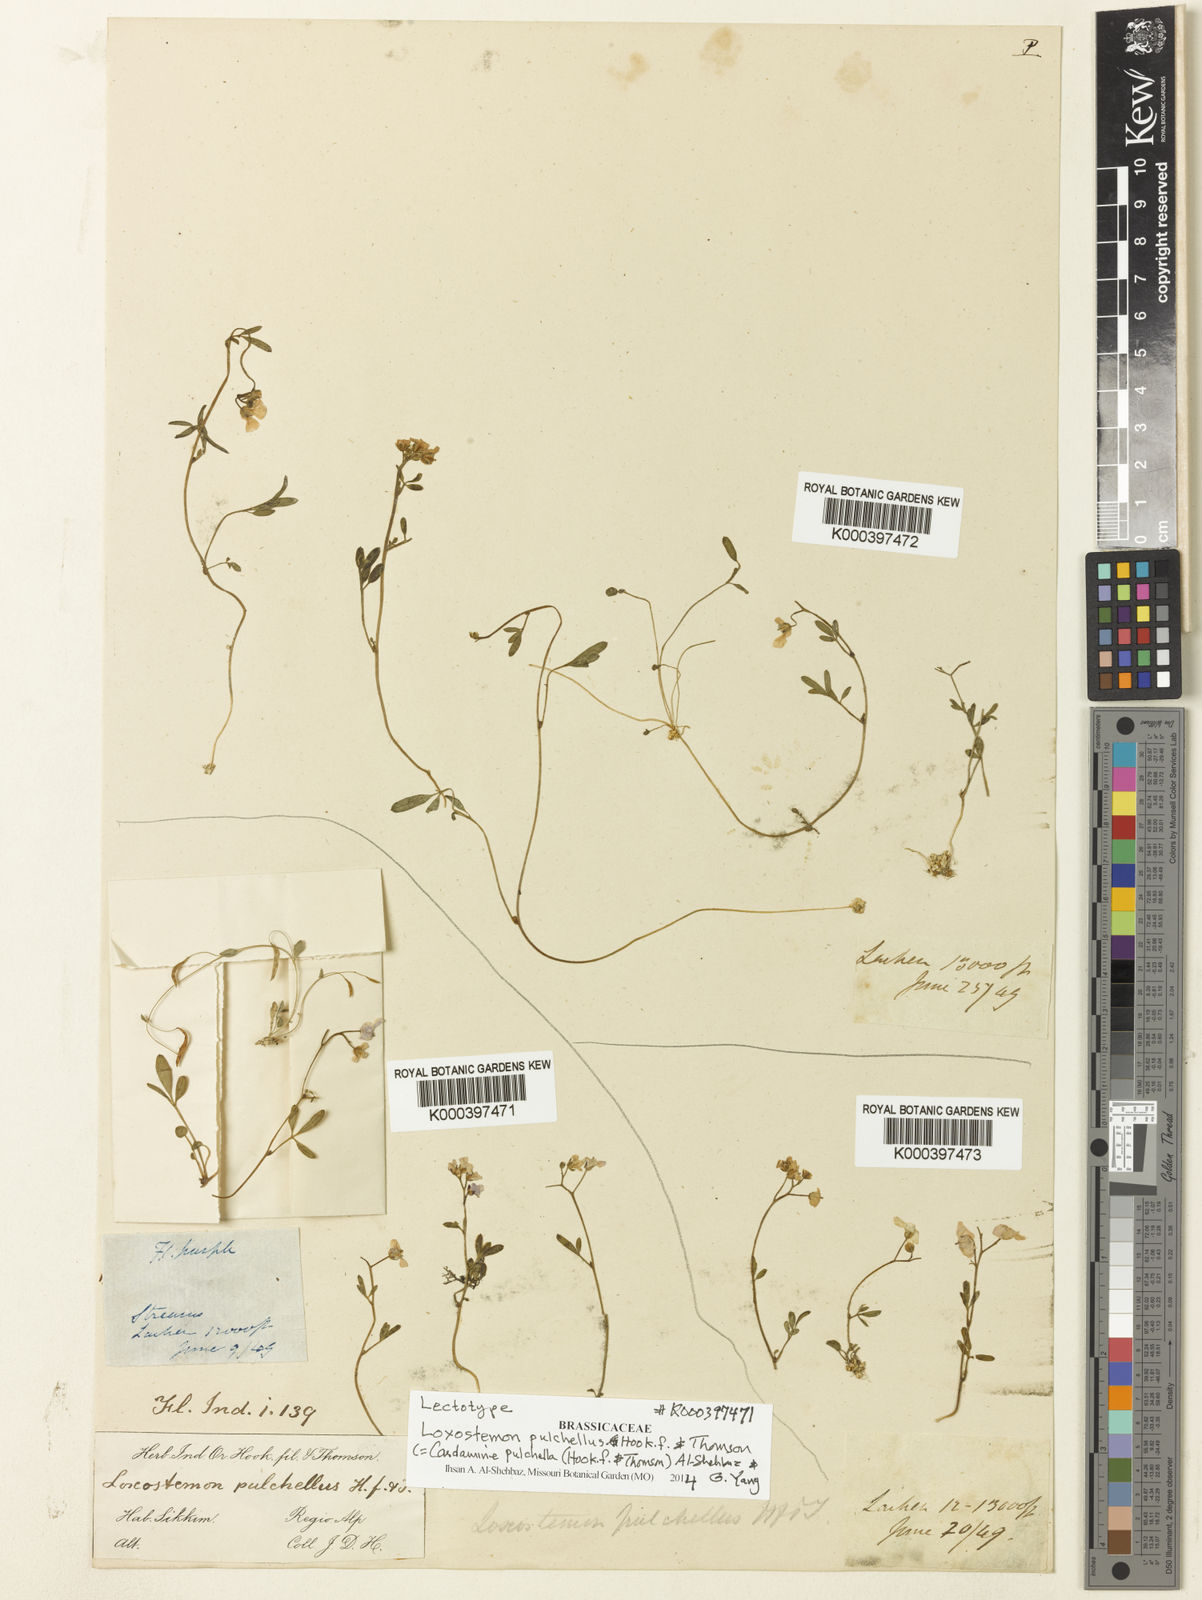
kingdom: Plantae
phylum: Tracheophyta
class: Magnoliopsida
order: Brassicales
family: Brassicaceae
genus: Cardamine
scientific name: Cardamine pulchella
